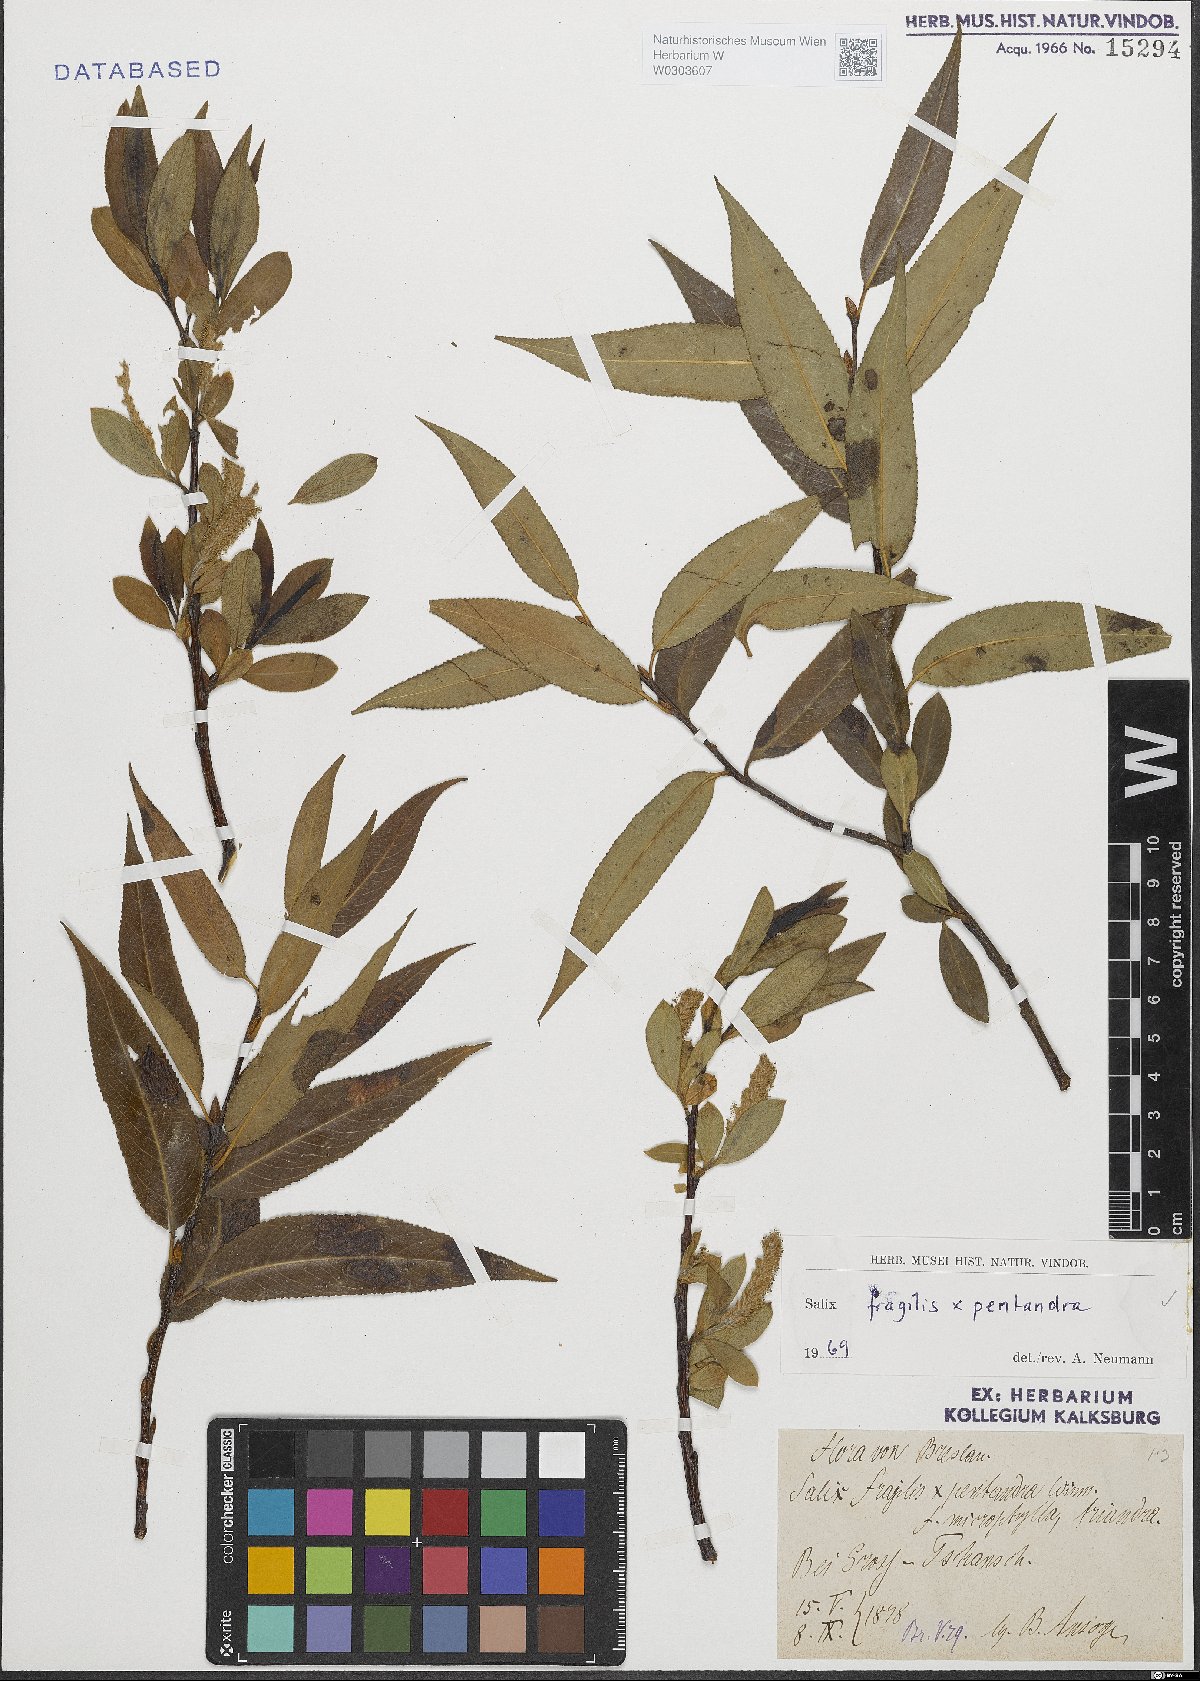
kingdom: Plantae
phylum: Tracheophyta
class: Magnoliopsida
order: Malpighiales
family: Salicaceae
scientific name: Salicaceae
